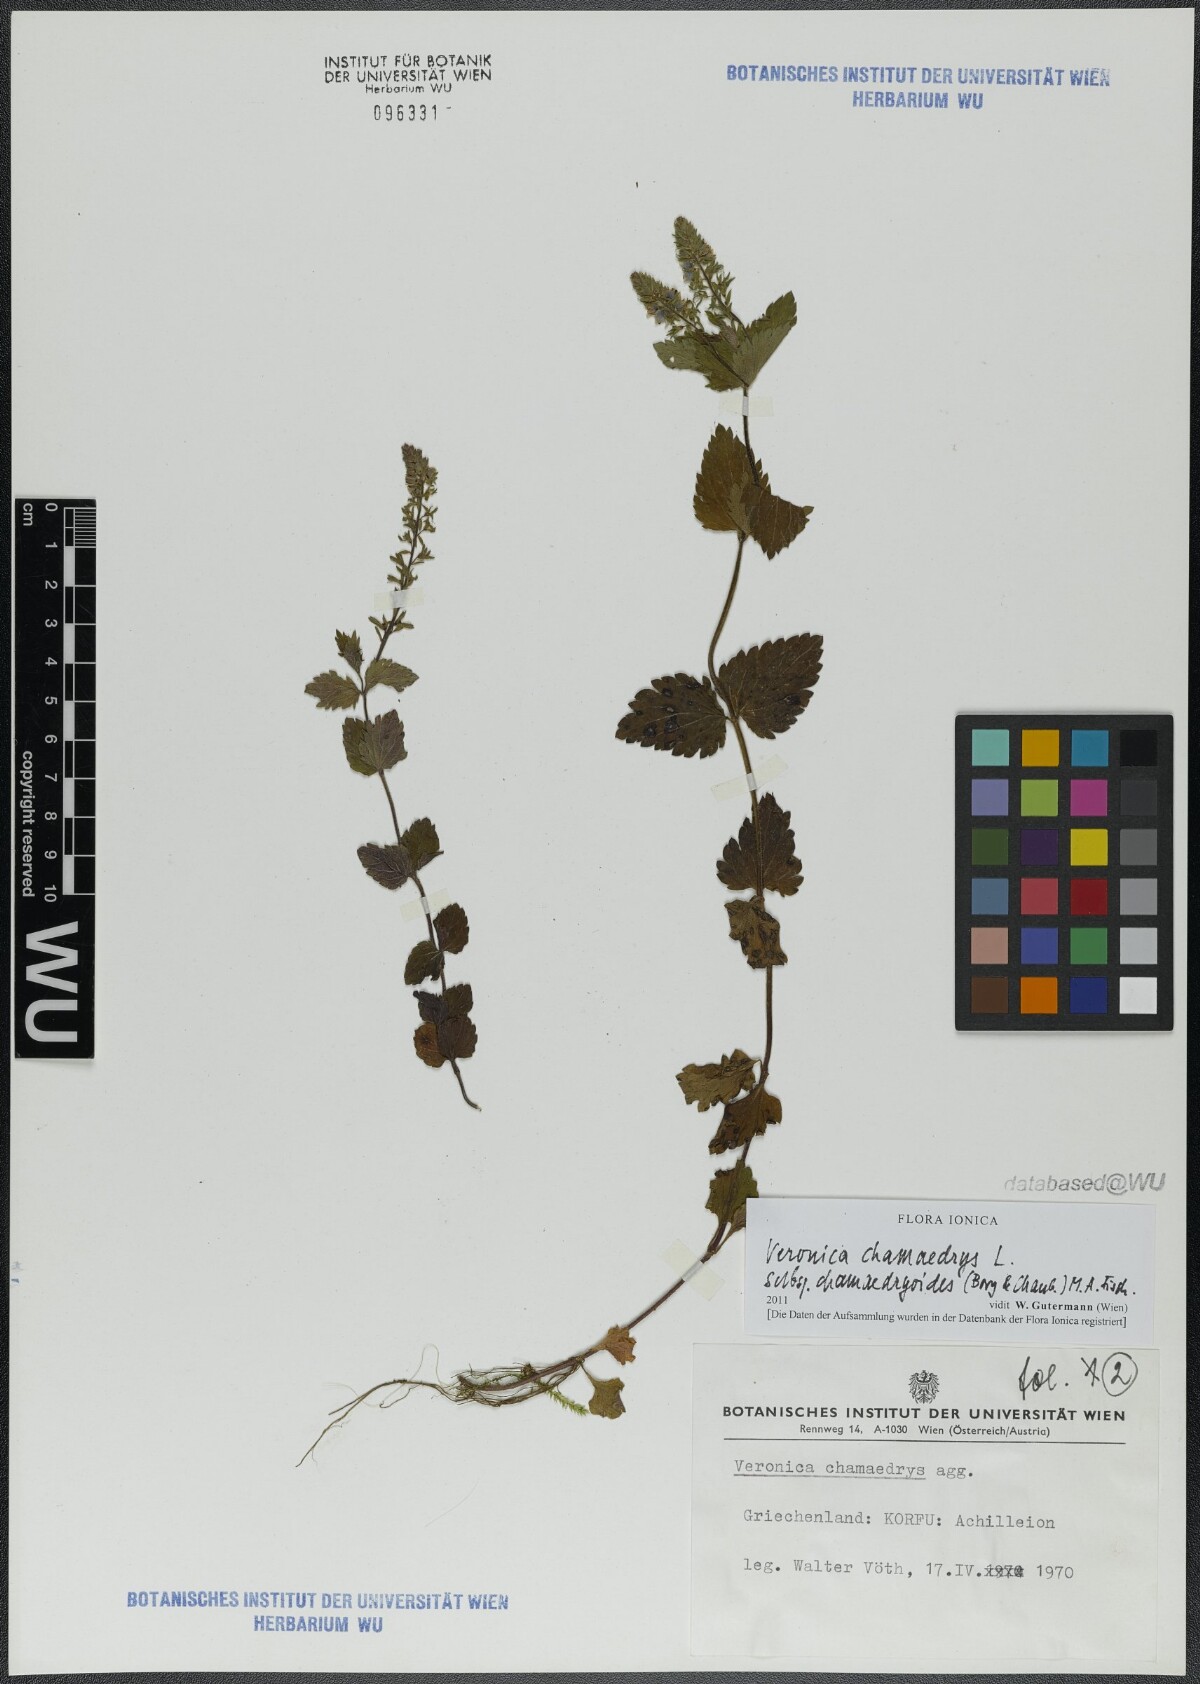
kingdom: Plantae
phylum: Tracheophyta
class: Magnoliopsida
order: Lamiales
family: Plantaginaceae
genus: Veronica
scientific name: Veronica chamaedrys
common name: Germander speedwell
